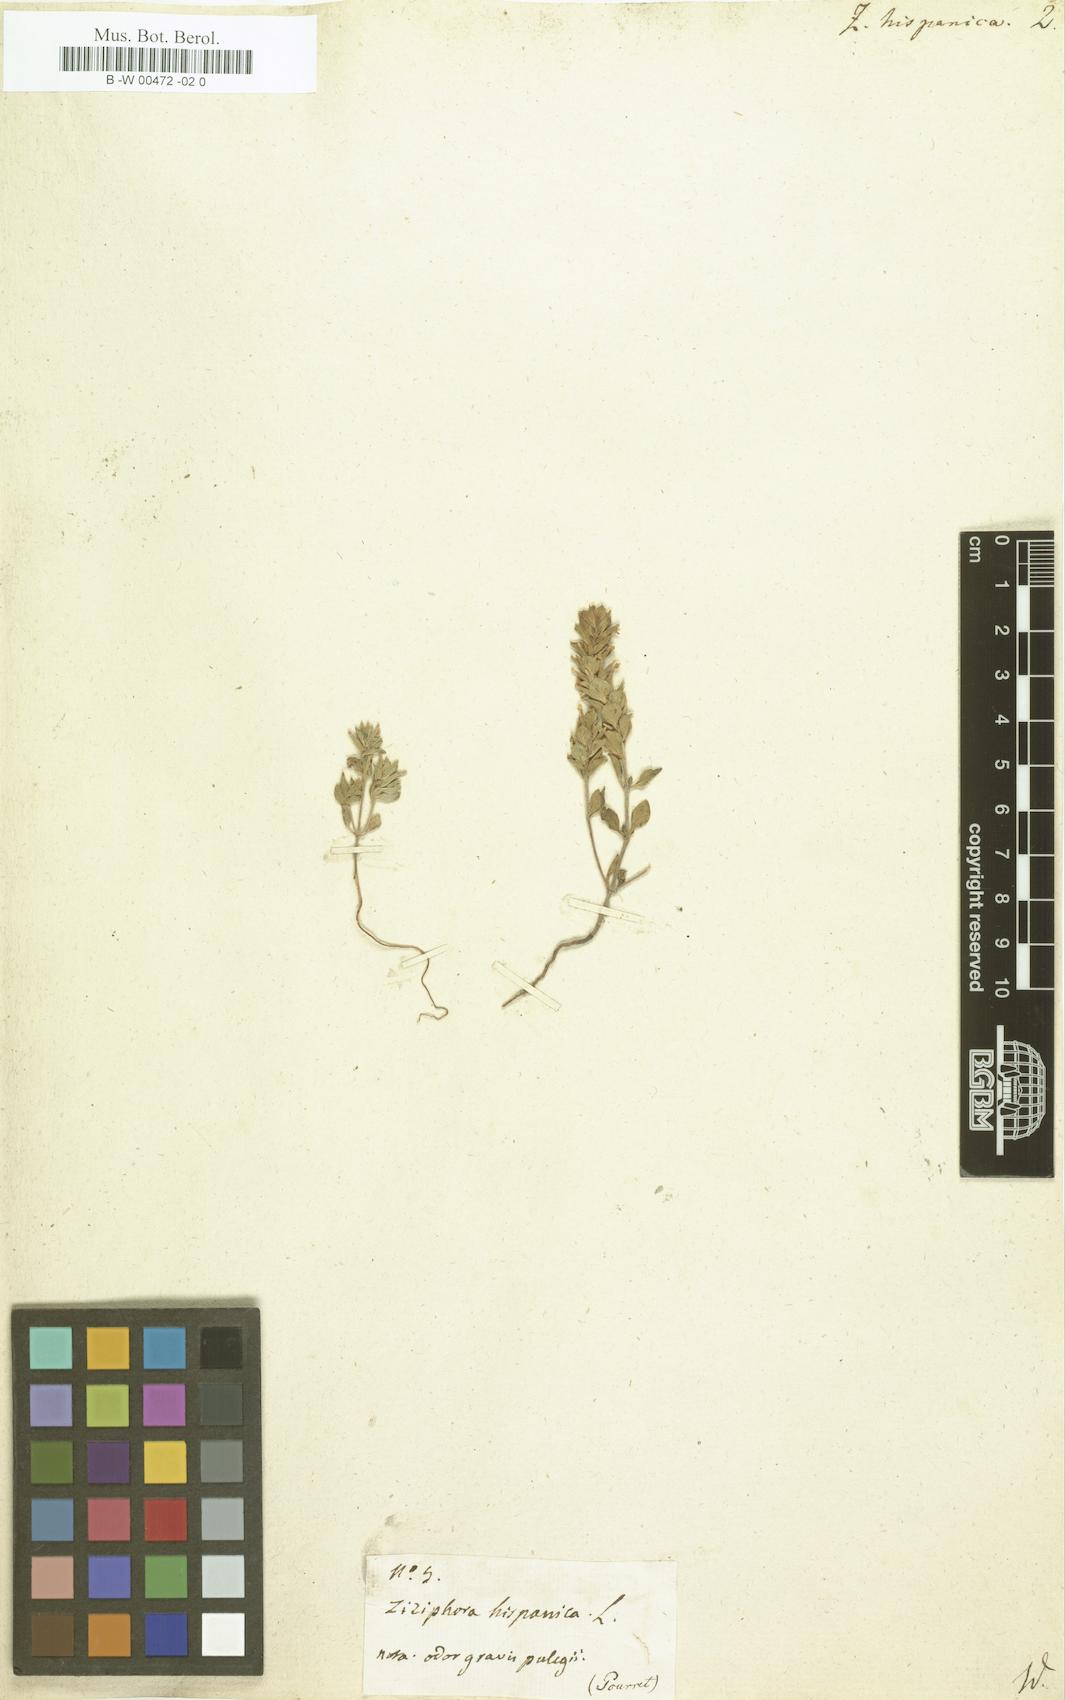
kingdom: Plantae
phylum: Tracheophyta
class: Magnoliopsida
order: Lamiales
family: Lamiaceae
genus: Ziziphora
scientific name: Ziziphora hispanica
